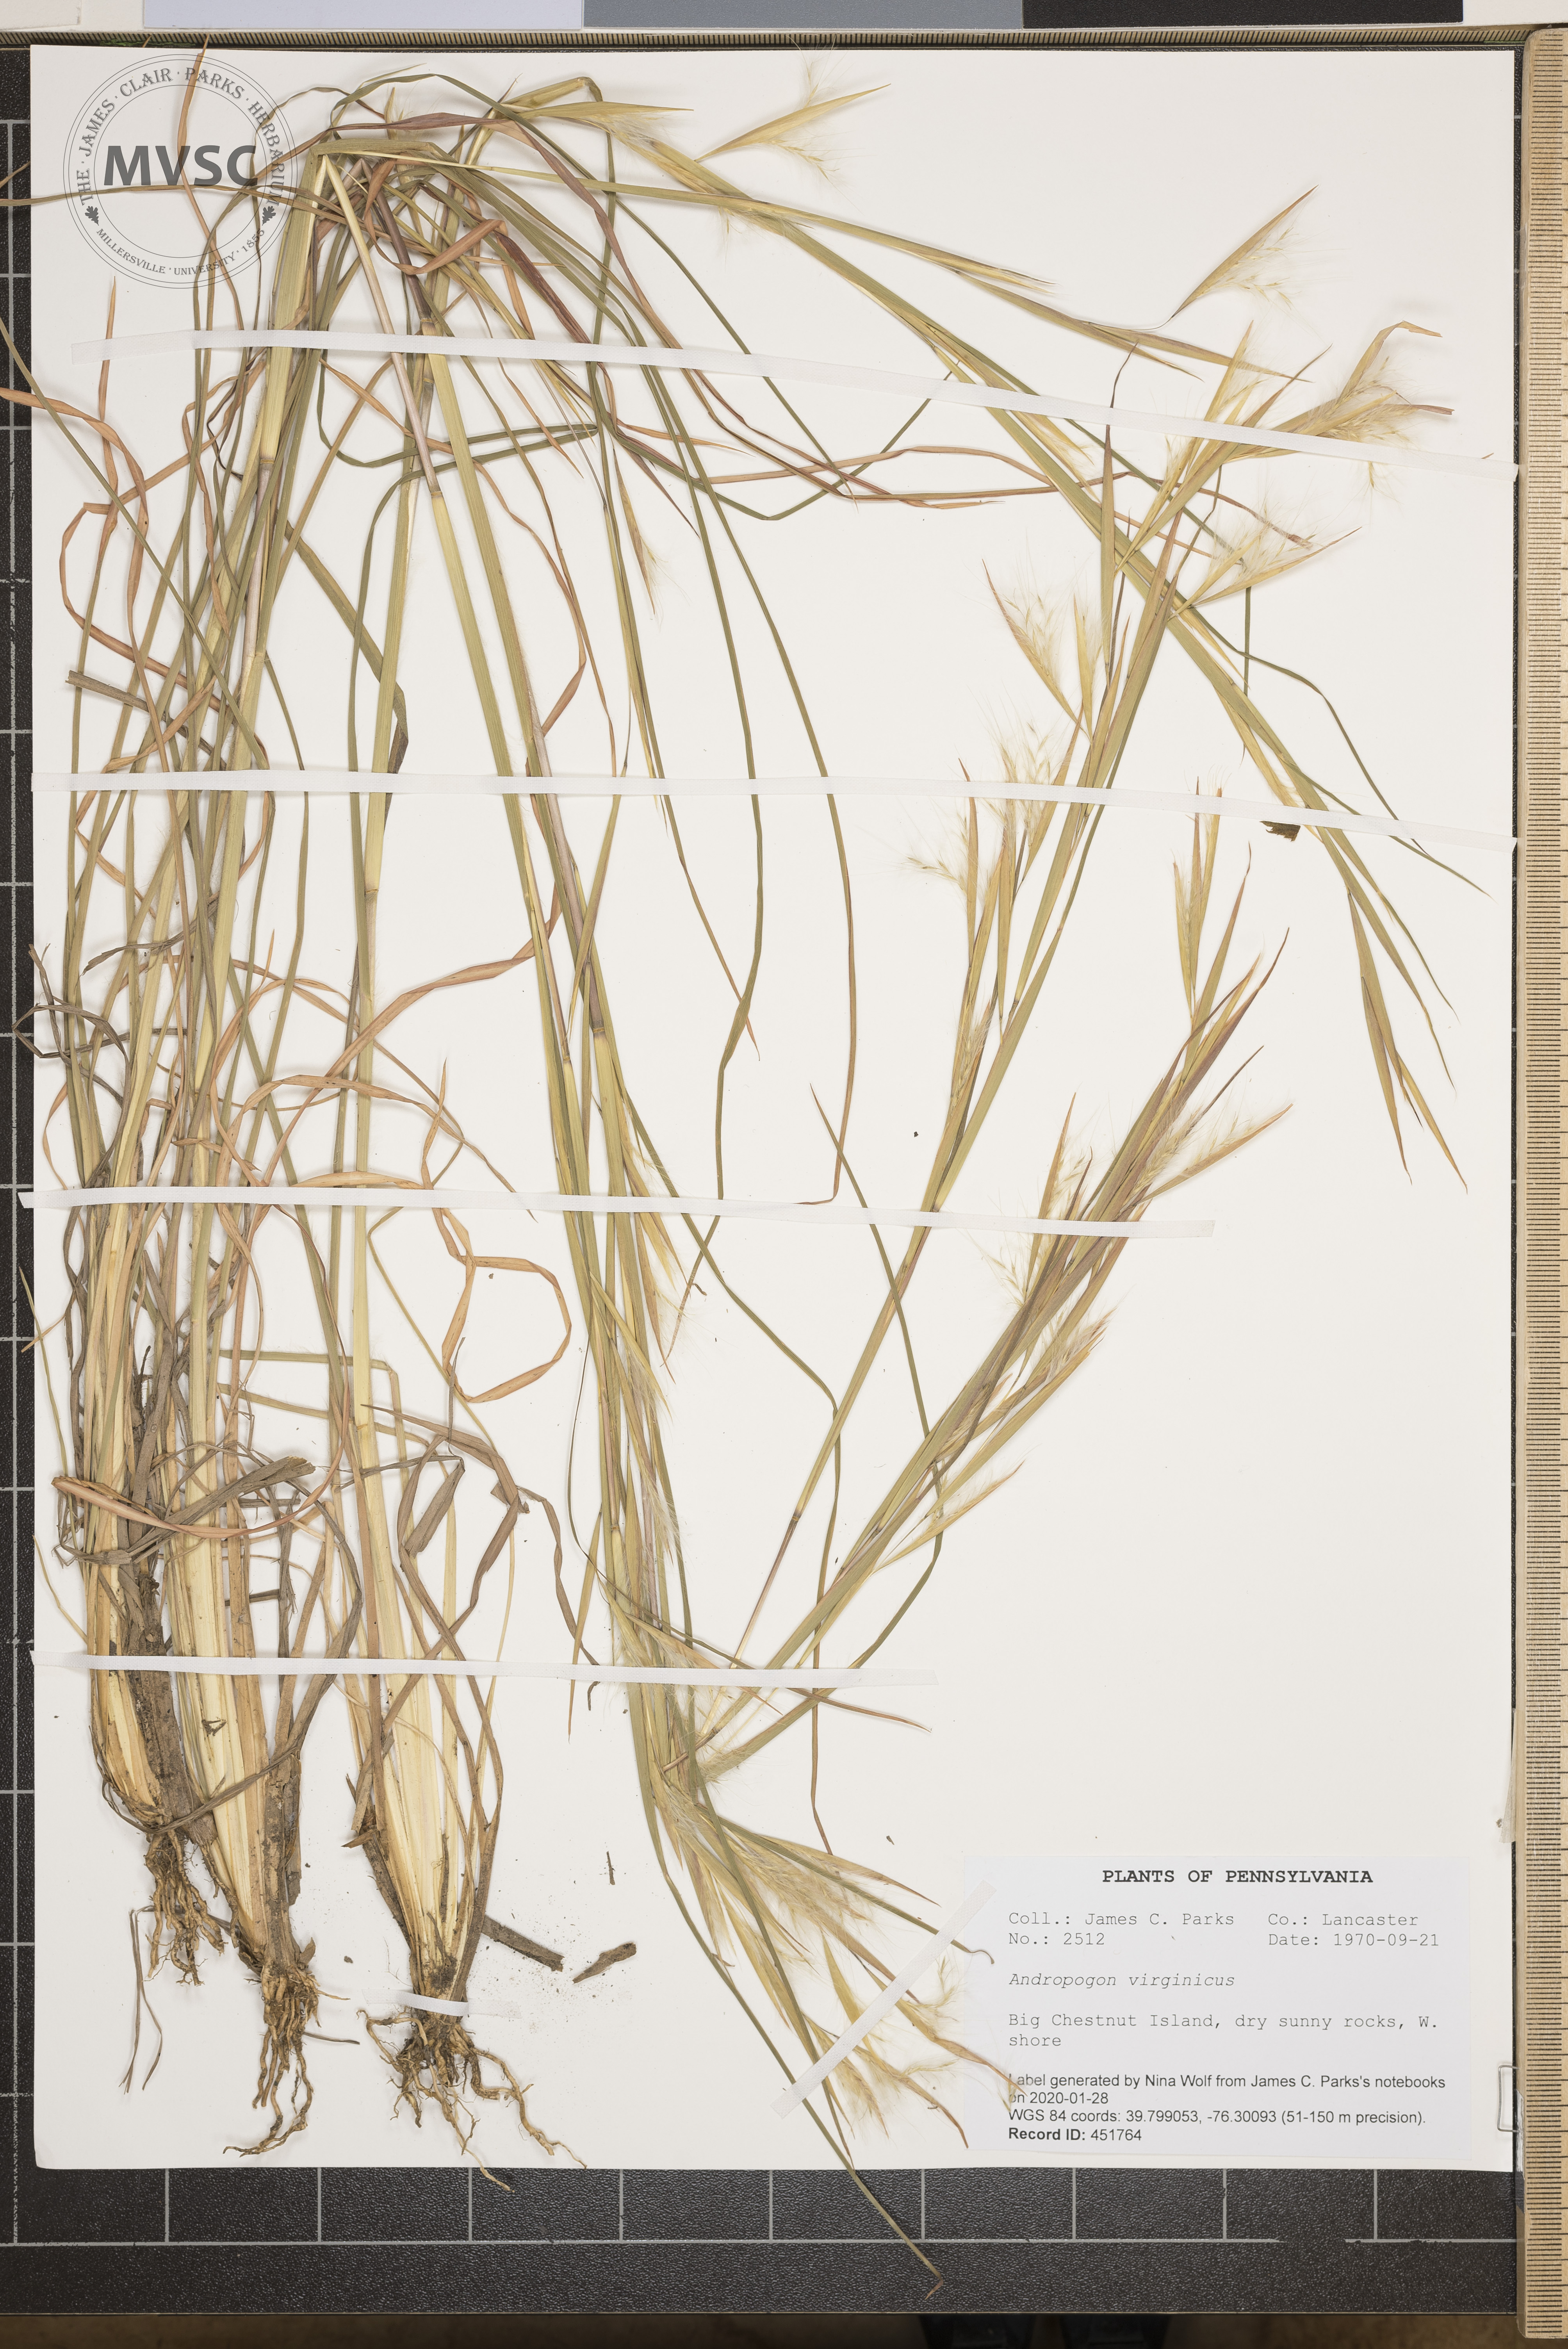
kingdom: Plantae
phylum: Tracheophyta
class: Liliopsida
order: Poales
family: Poaceae
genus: Andropogon
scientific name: Andropogon virginicus
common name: Broomsedge bluestem
